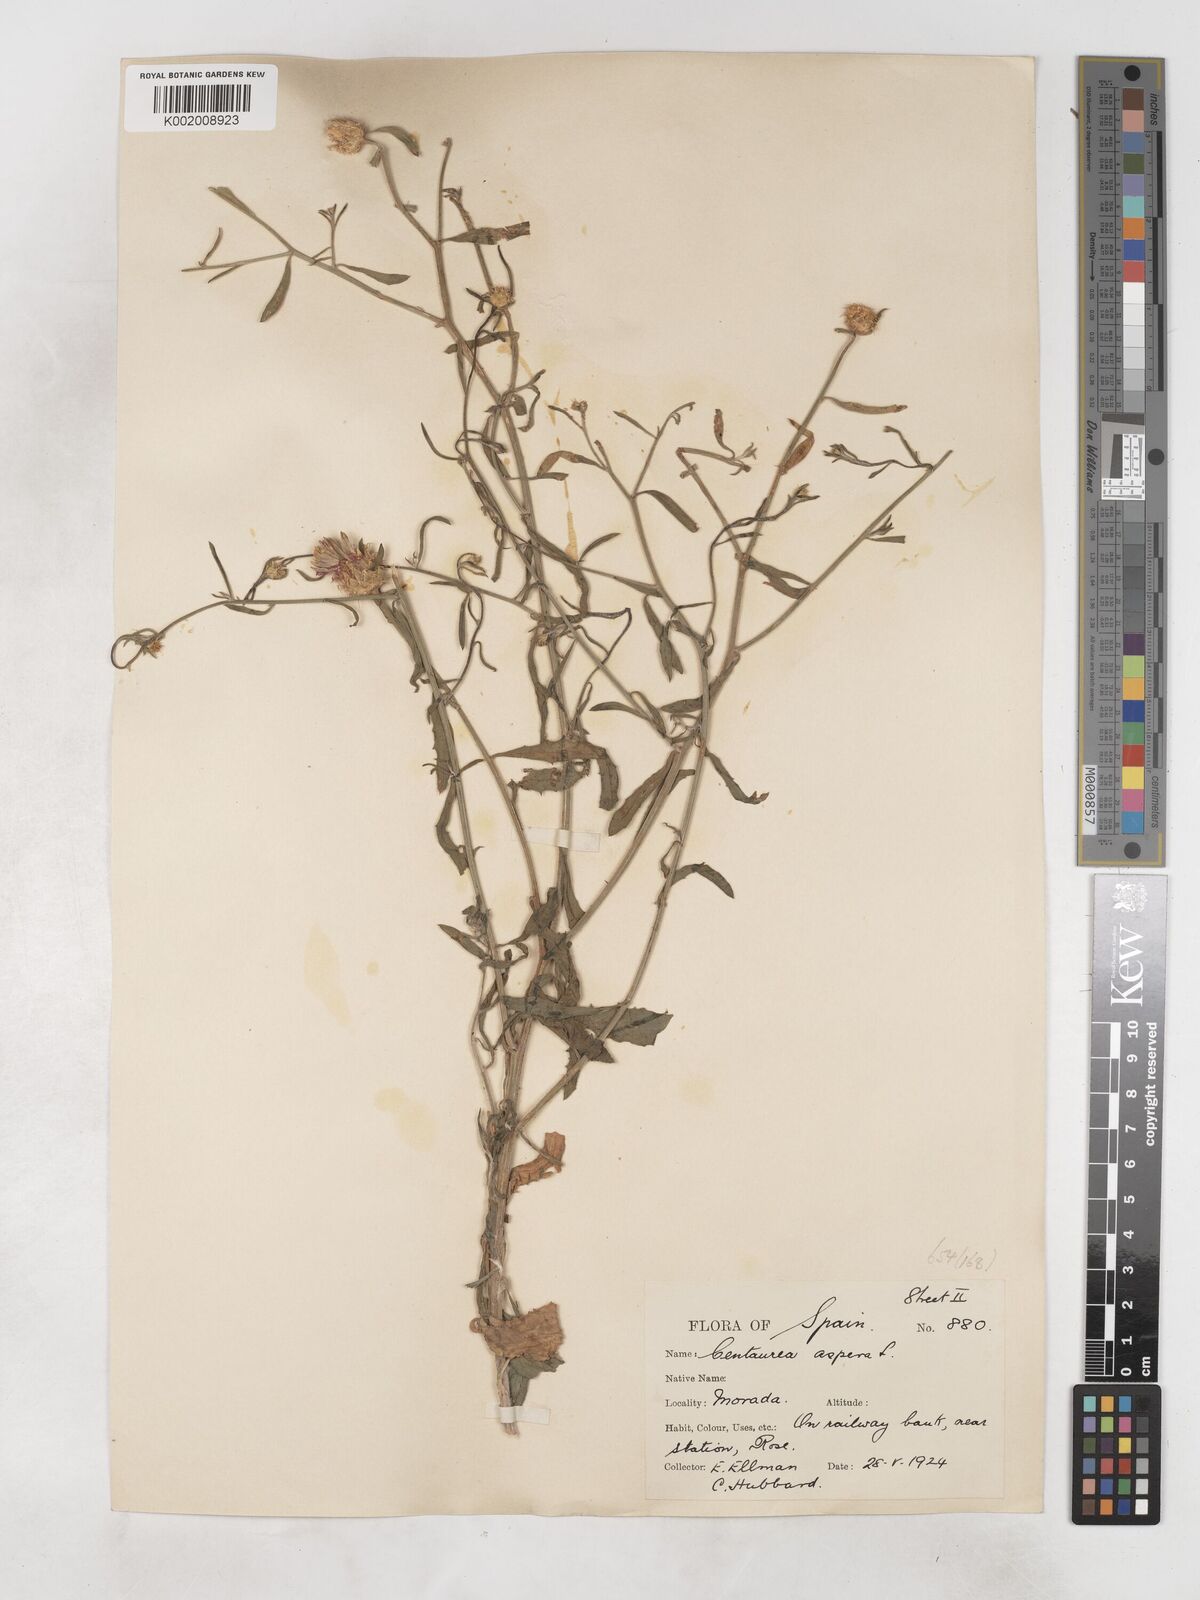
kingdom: Plantae
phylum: Tracheophyta
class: Magnoliopsida
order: Asterales
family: Asteraceae
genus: Centaurea
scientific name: Centaurea aspera
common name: Rough star-thistle
